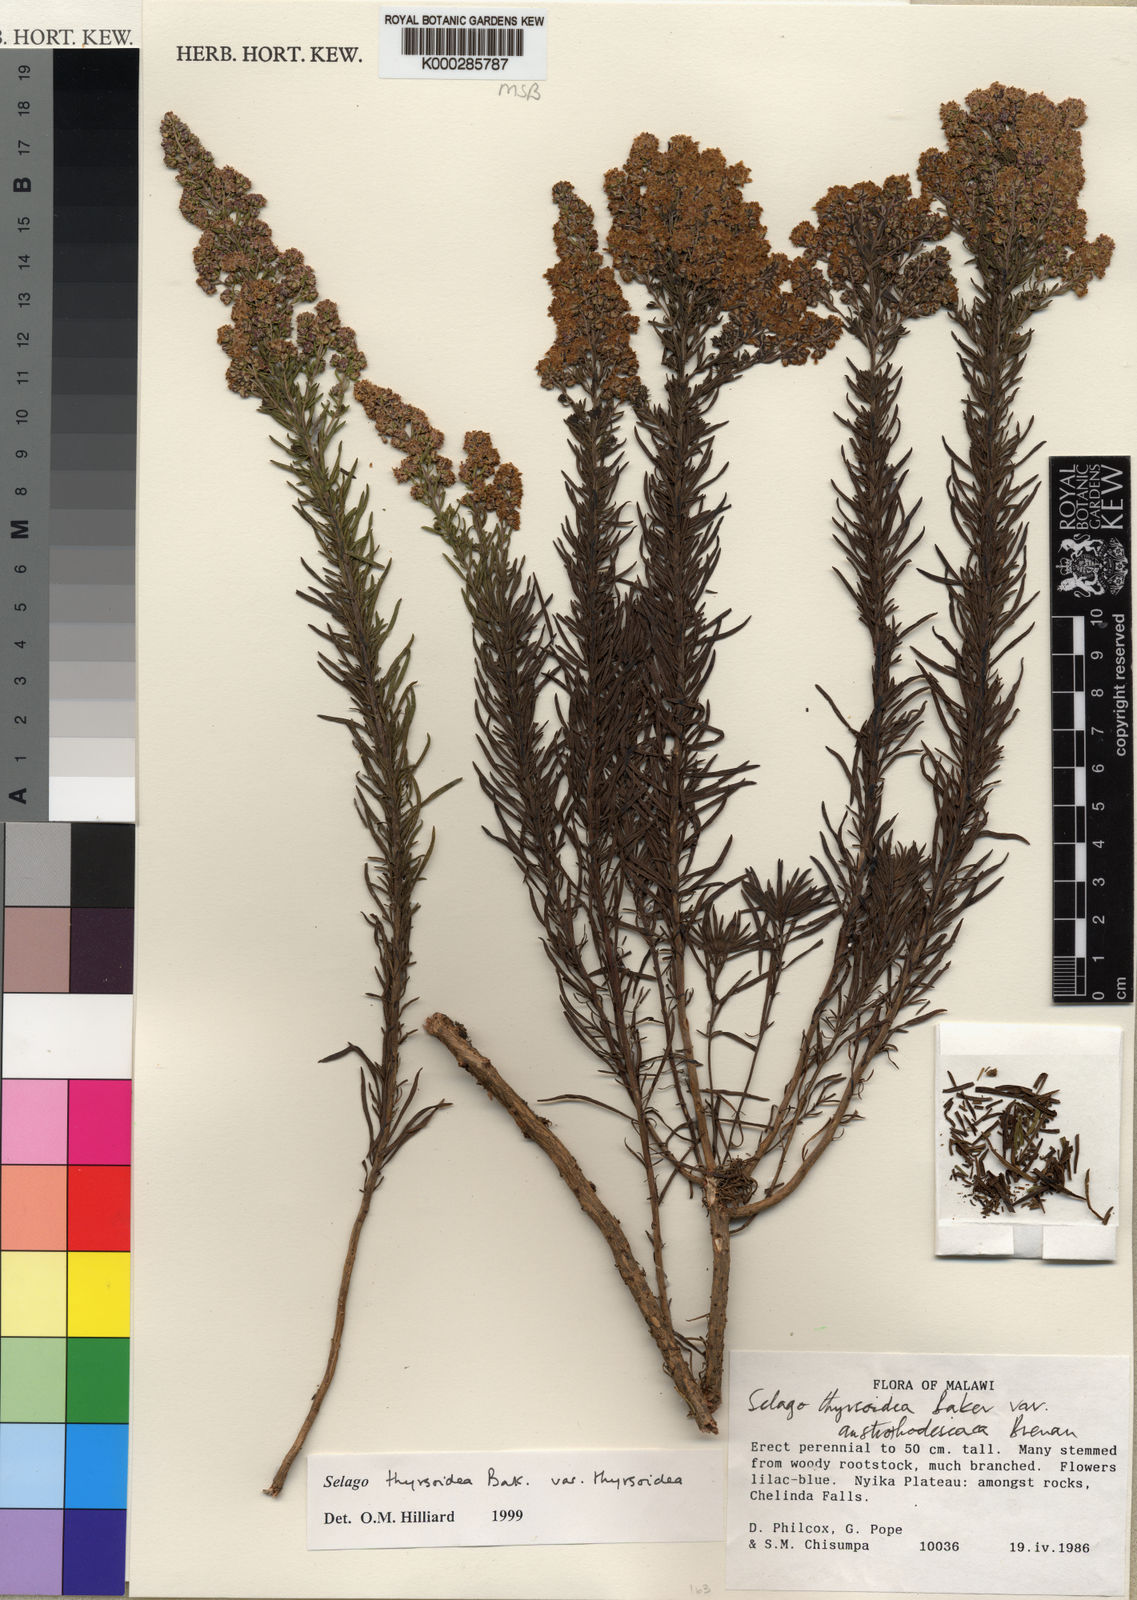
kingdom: Plantae
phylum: Tracheophyta
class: Magnoliopsida
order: Lamiales
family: Scrophulariaceae
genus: Selago
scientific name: Selago thyrsoidea
